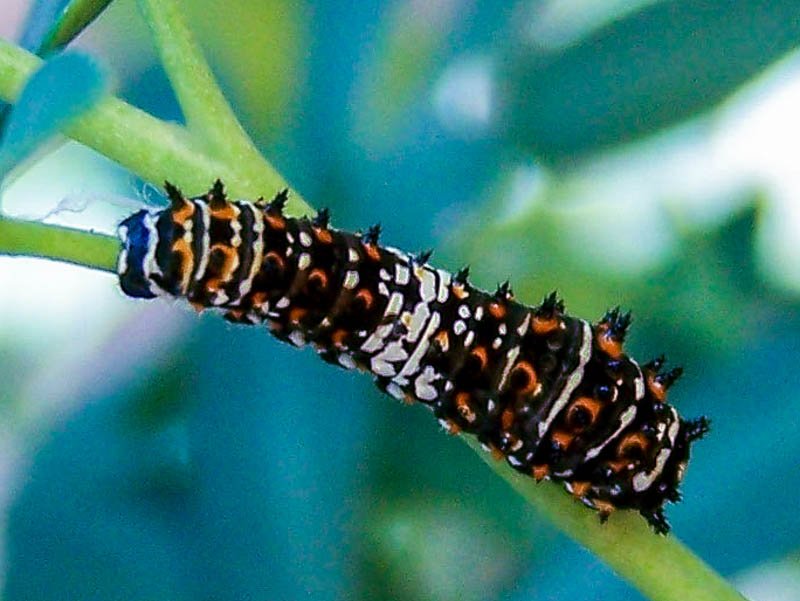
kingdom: Animalia
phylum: Arthropoda
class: Insecta
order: Lepidoptera
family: Papilionidae
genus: Papilio
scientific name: Papilio zelicaon
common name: Anise Swallowtail
